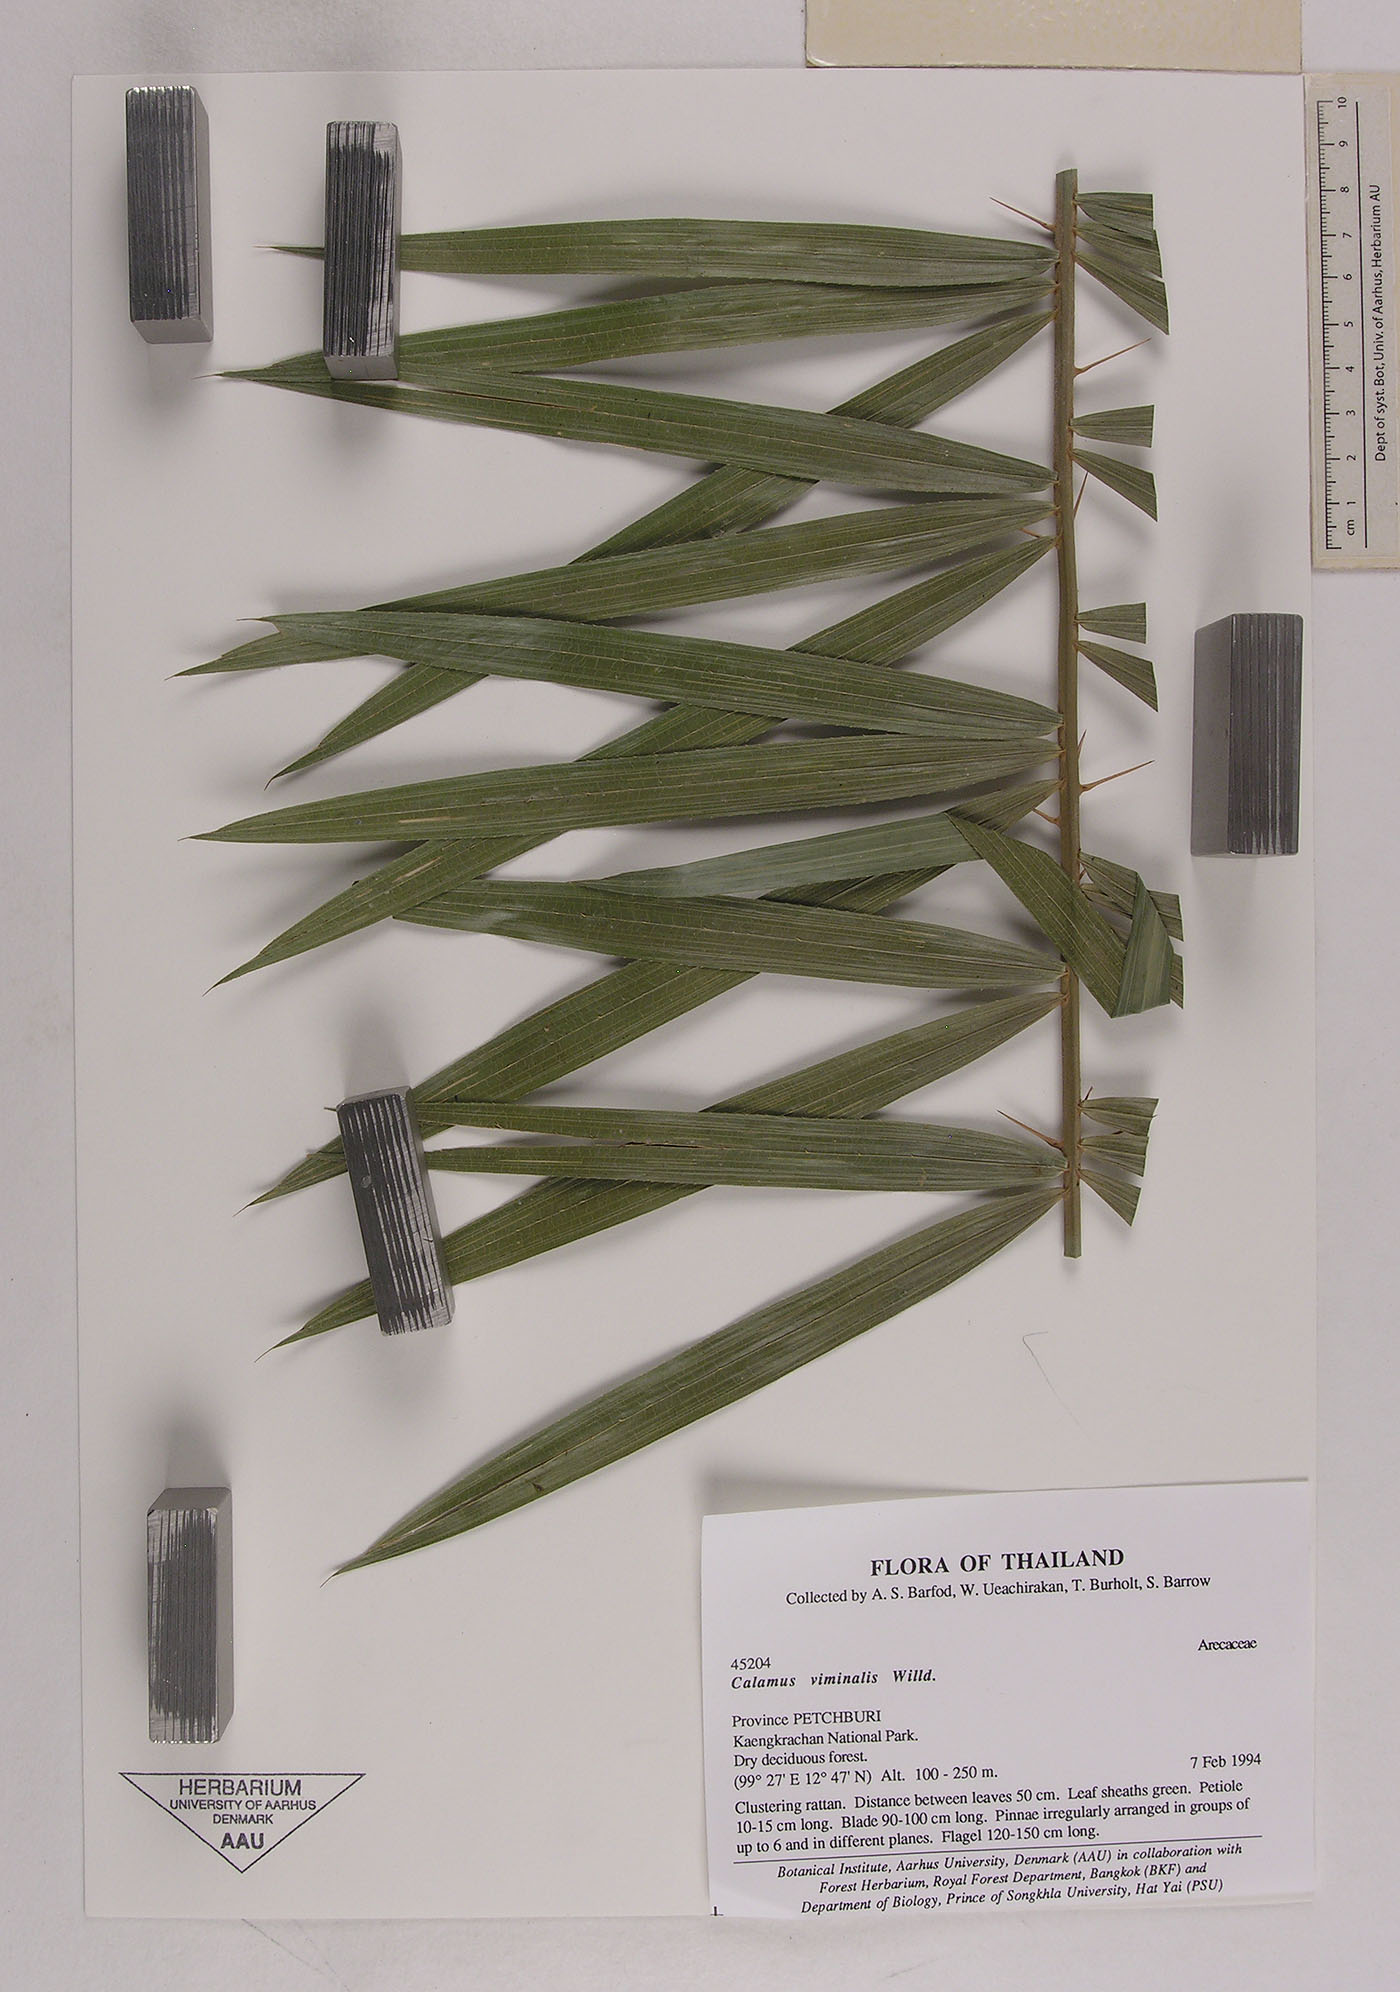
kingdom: Plantae
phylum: Tracheophyta
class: Liliopsida
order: Arecales
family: Arecaceae
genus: Calamus
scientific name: Calamus viminalis
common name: Osier-like rattan palm
